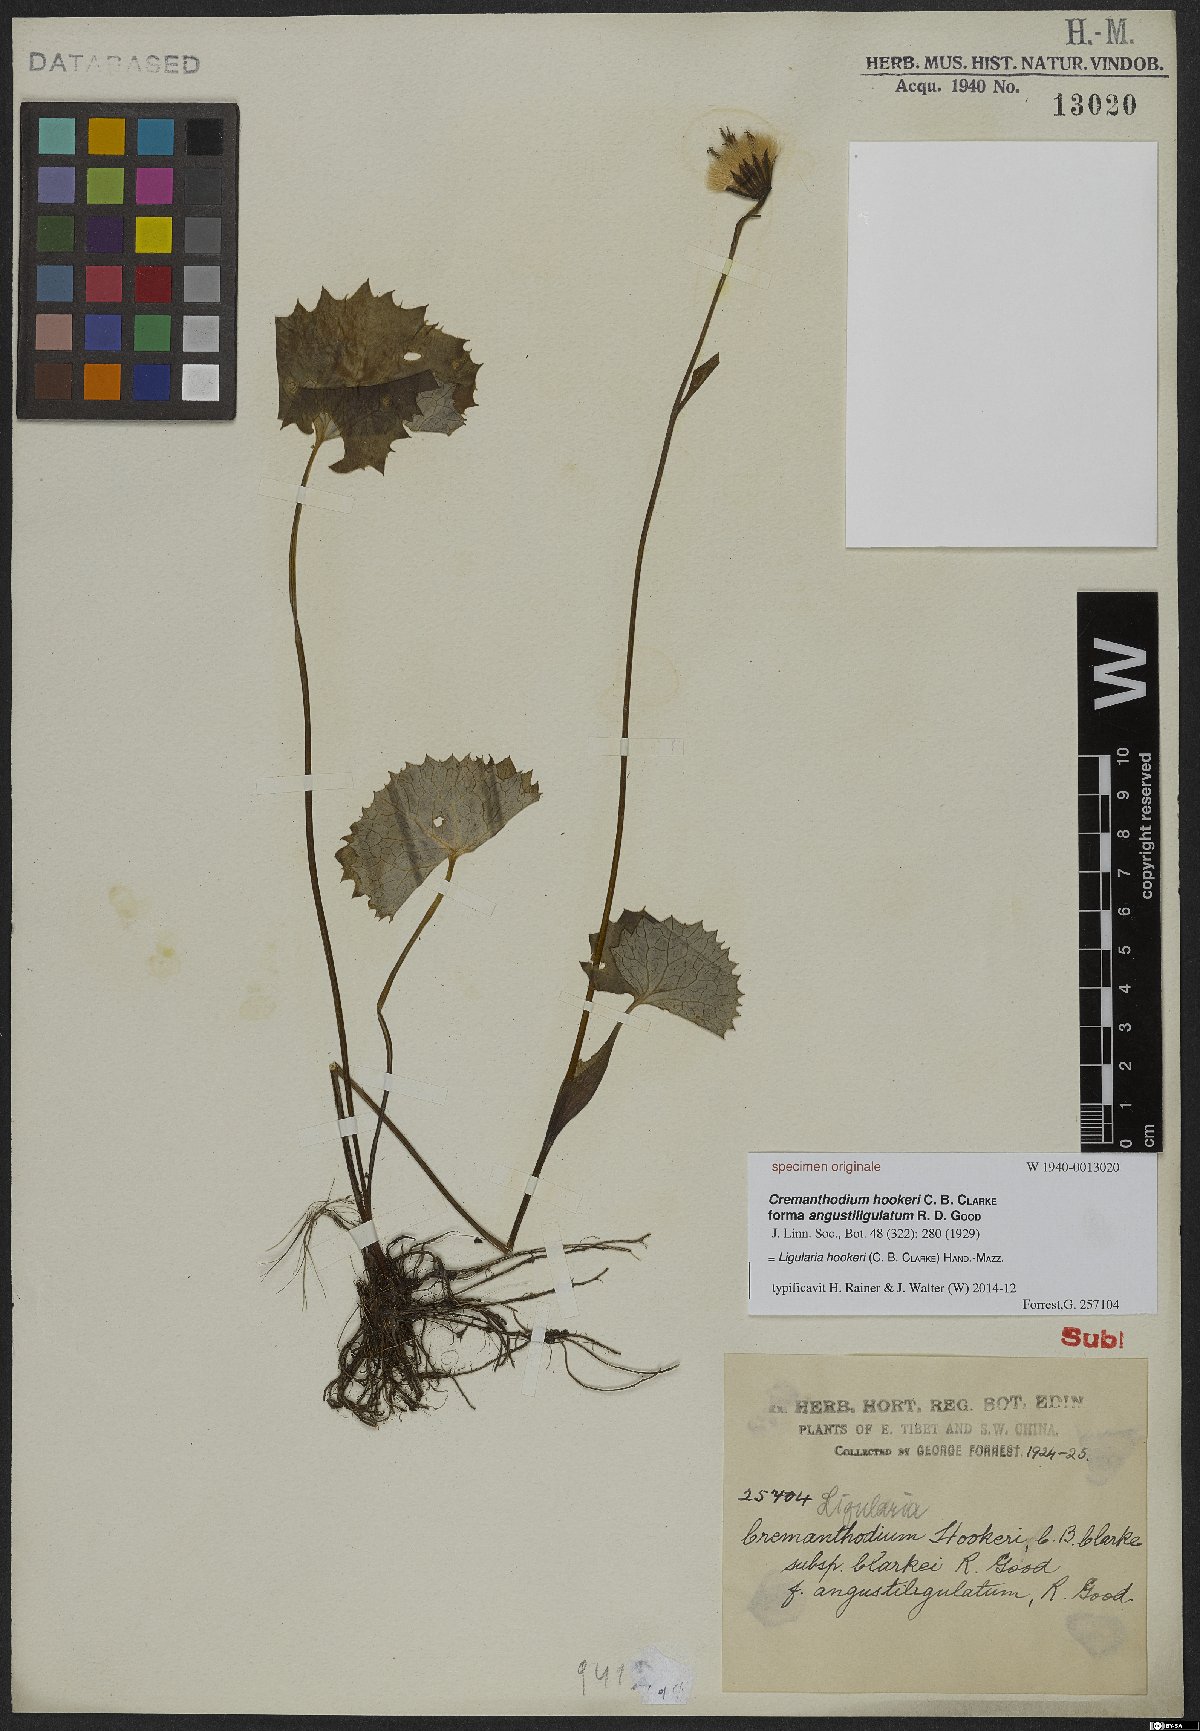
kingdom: Plantae
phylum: Tracheophyta
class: Magnoliopsida
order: Asterales
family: Asteraceae
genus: Ligularia
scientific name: Ligularia hookeri
